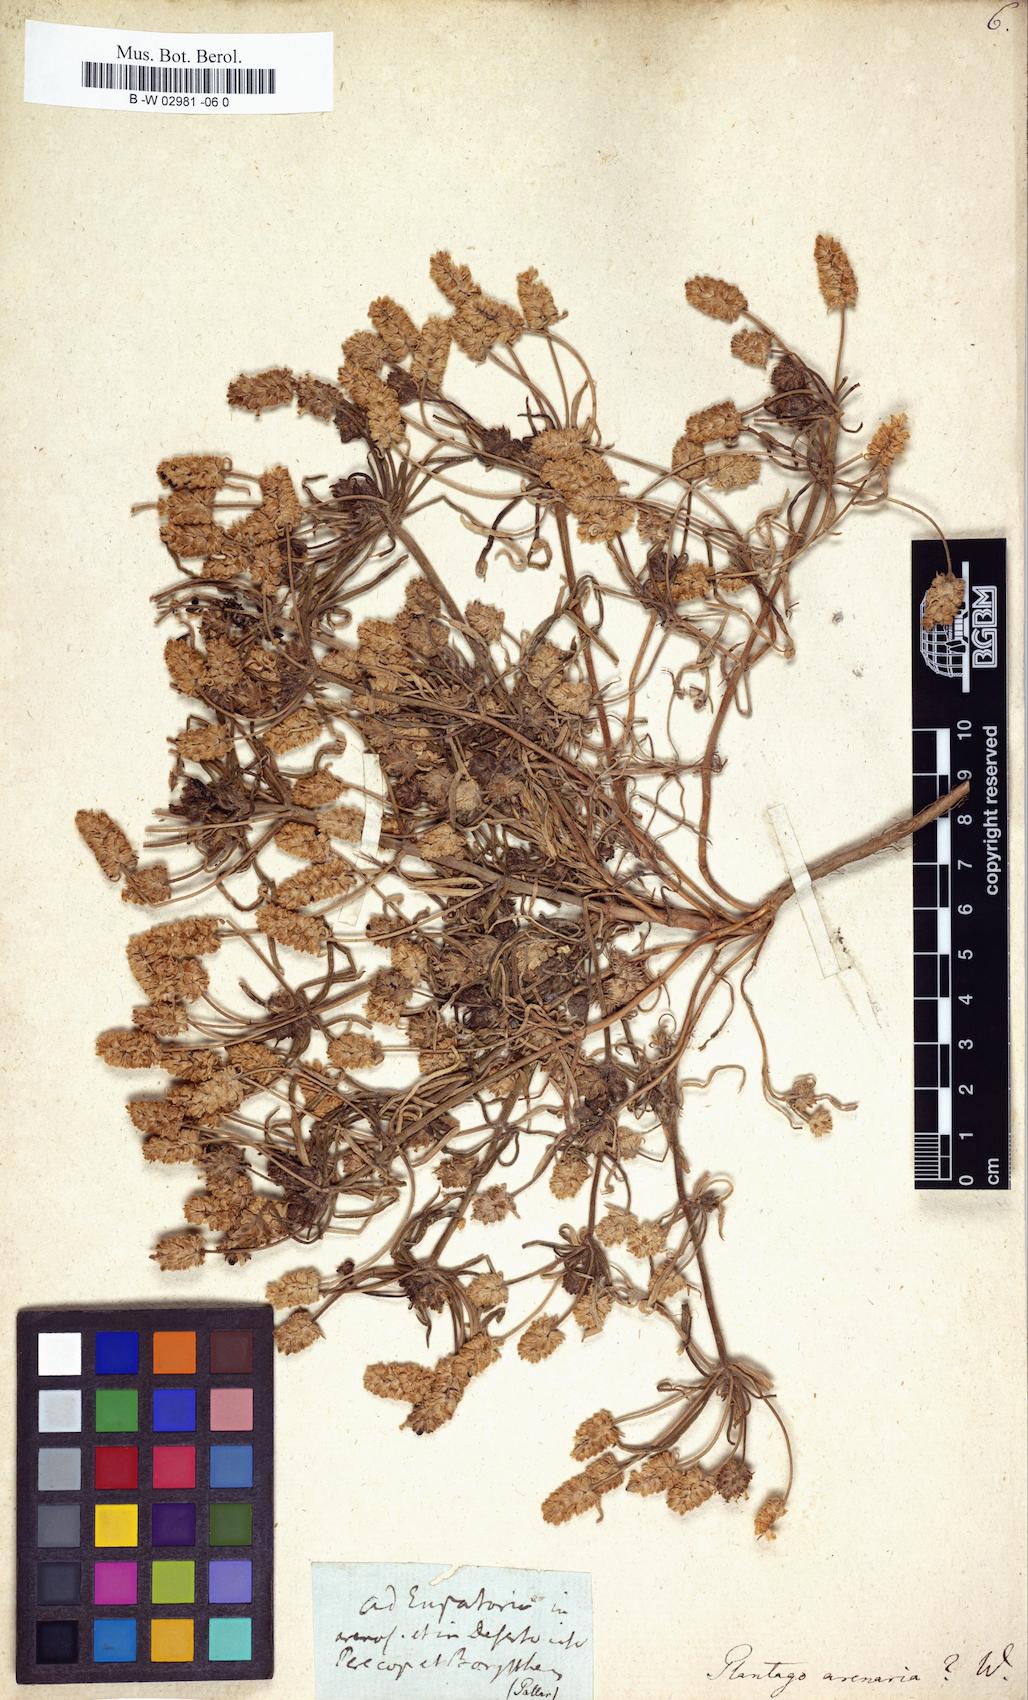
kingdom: Plantae
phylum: Tracheophyta
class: Magnoliopsida
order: Lamiales
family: Plantaginaceae
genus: Plantago
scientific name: Plantago arenaria
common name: Branched plantain
